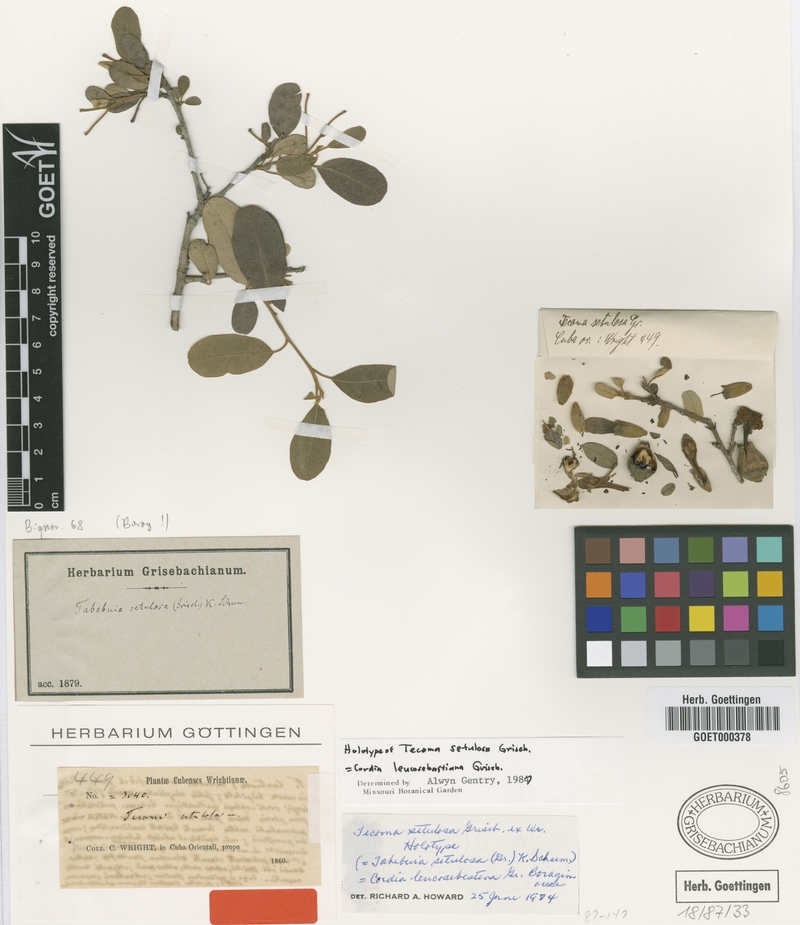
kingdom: Plantae
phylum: Tracheophyta
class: Magnoliopsida
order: Boraginales
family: Cordiaceae
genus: Cordia
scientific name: Cordia leucosebestera
